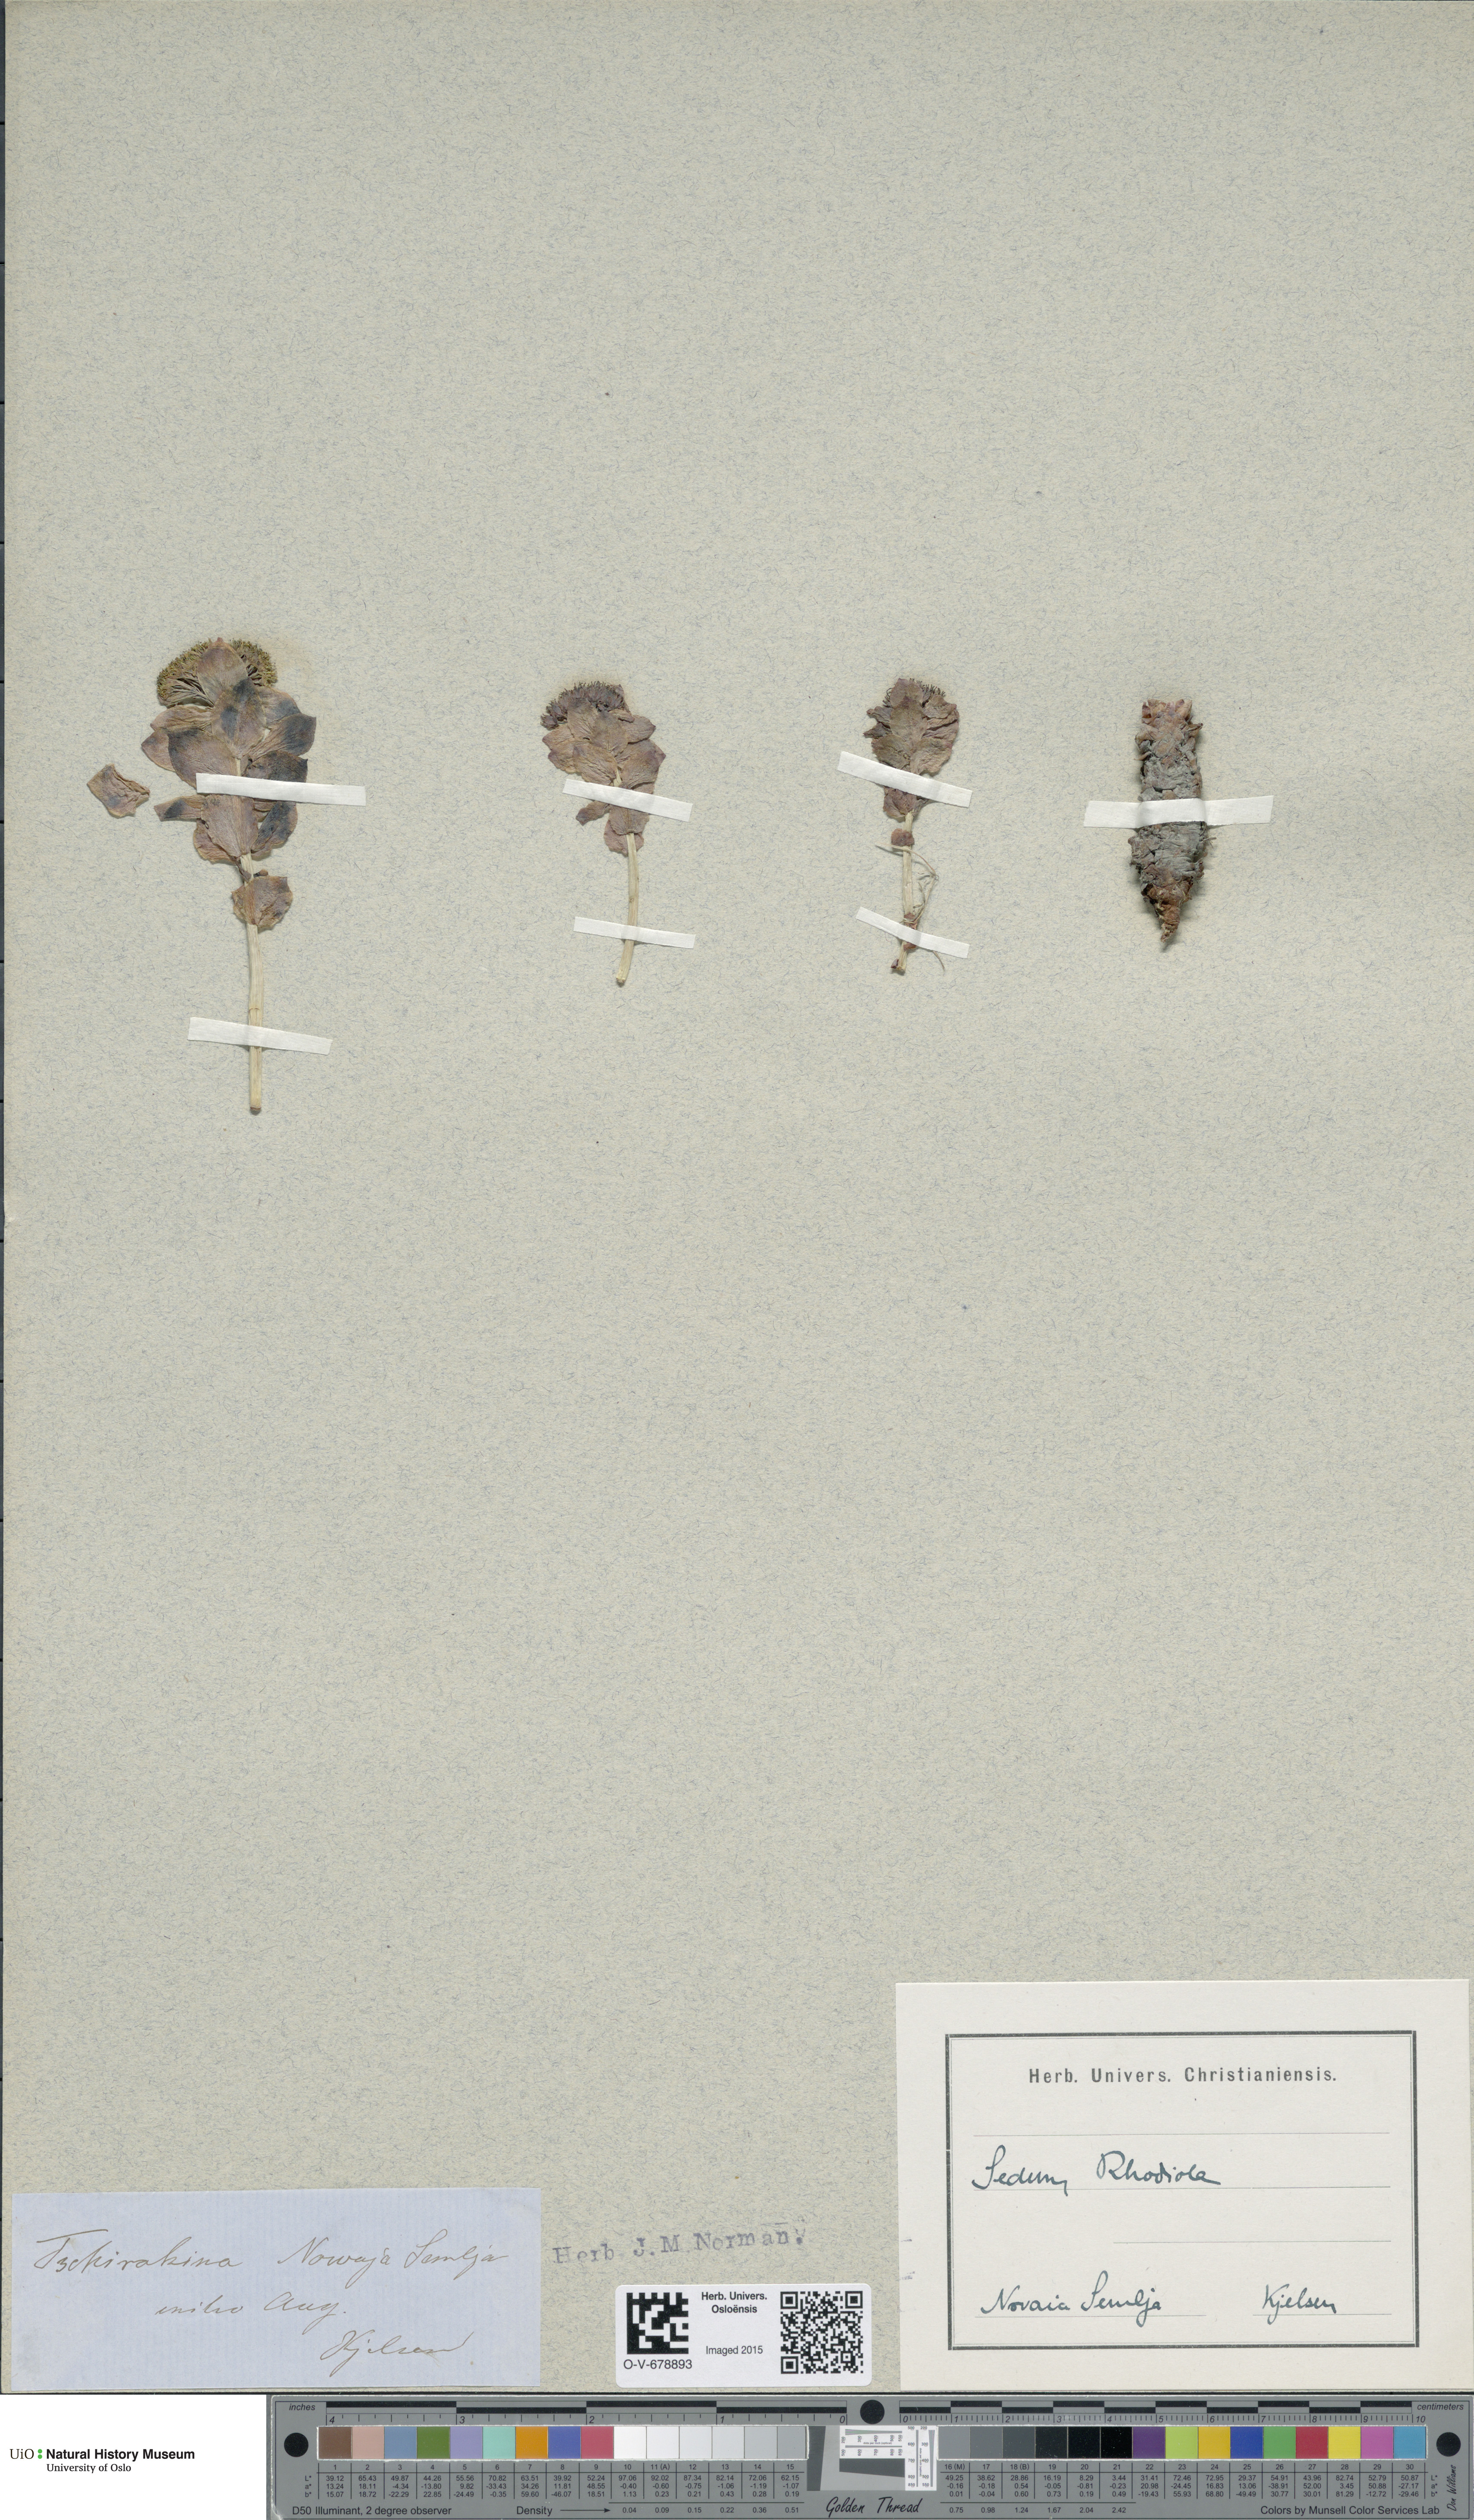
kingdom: Plantae
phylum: Tracheophyta
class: Magnoliopsida
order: Saxifragales
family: Crassulaceae
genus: Rhodiola
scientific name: Rhodiola rosea
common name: Roseroot
